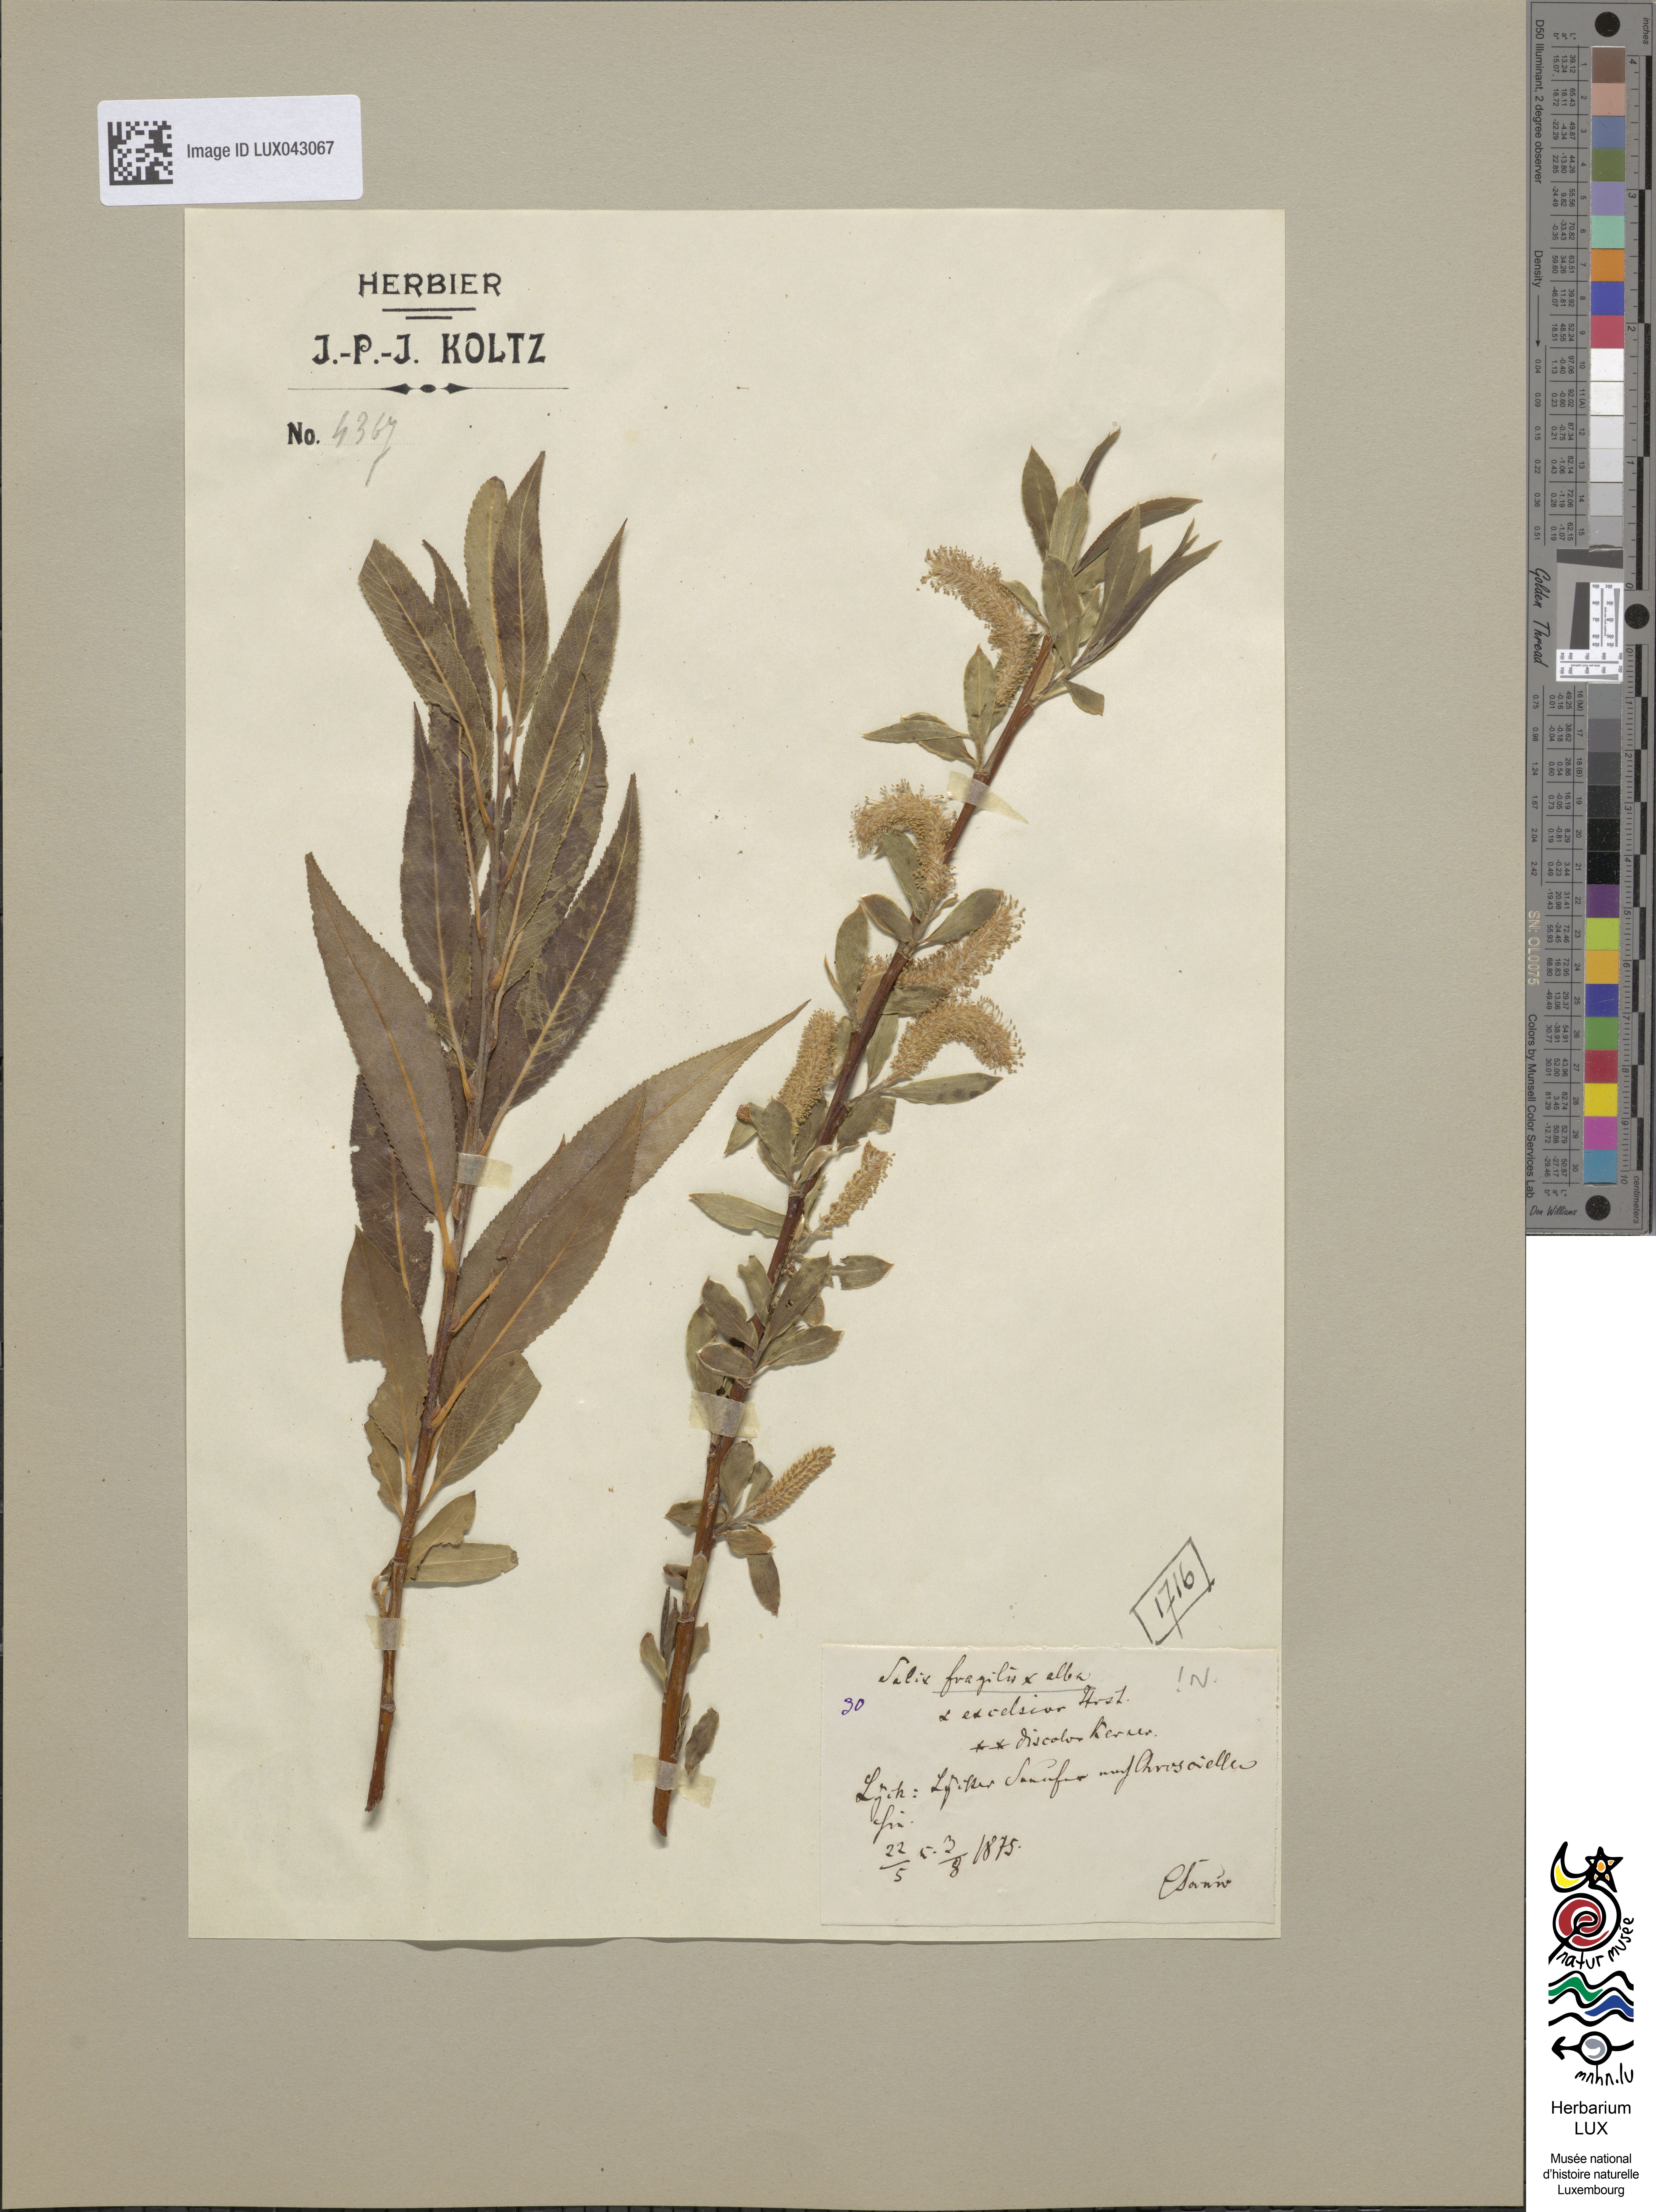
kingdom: Plantae
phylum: Tracheophyta
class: Magnoliopsida
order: Malpighiales
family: Salicaceae
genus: Salix
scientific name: Salix fragilis
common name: Crack willow
